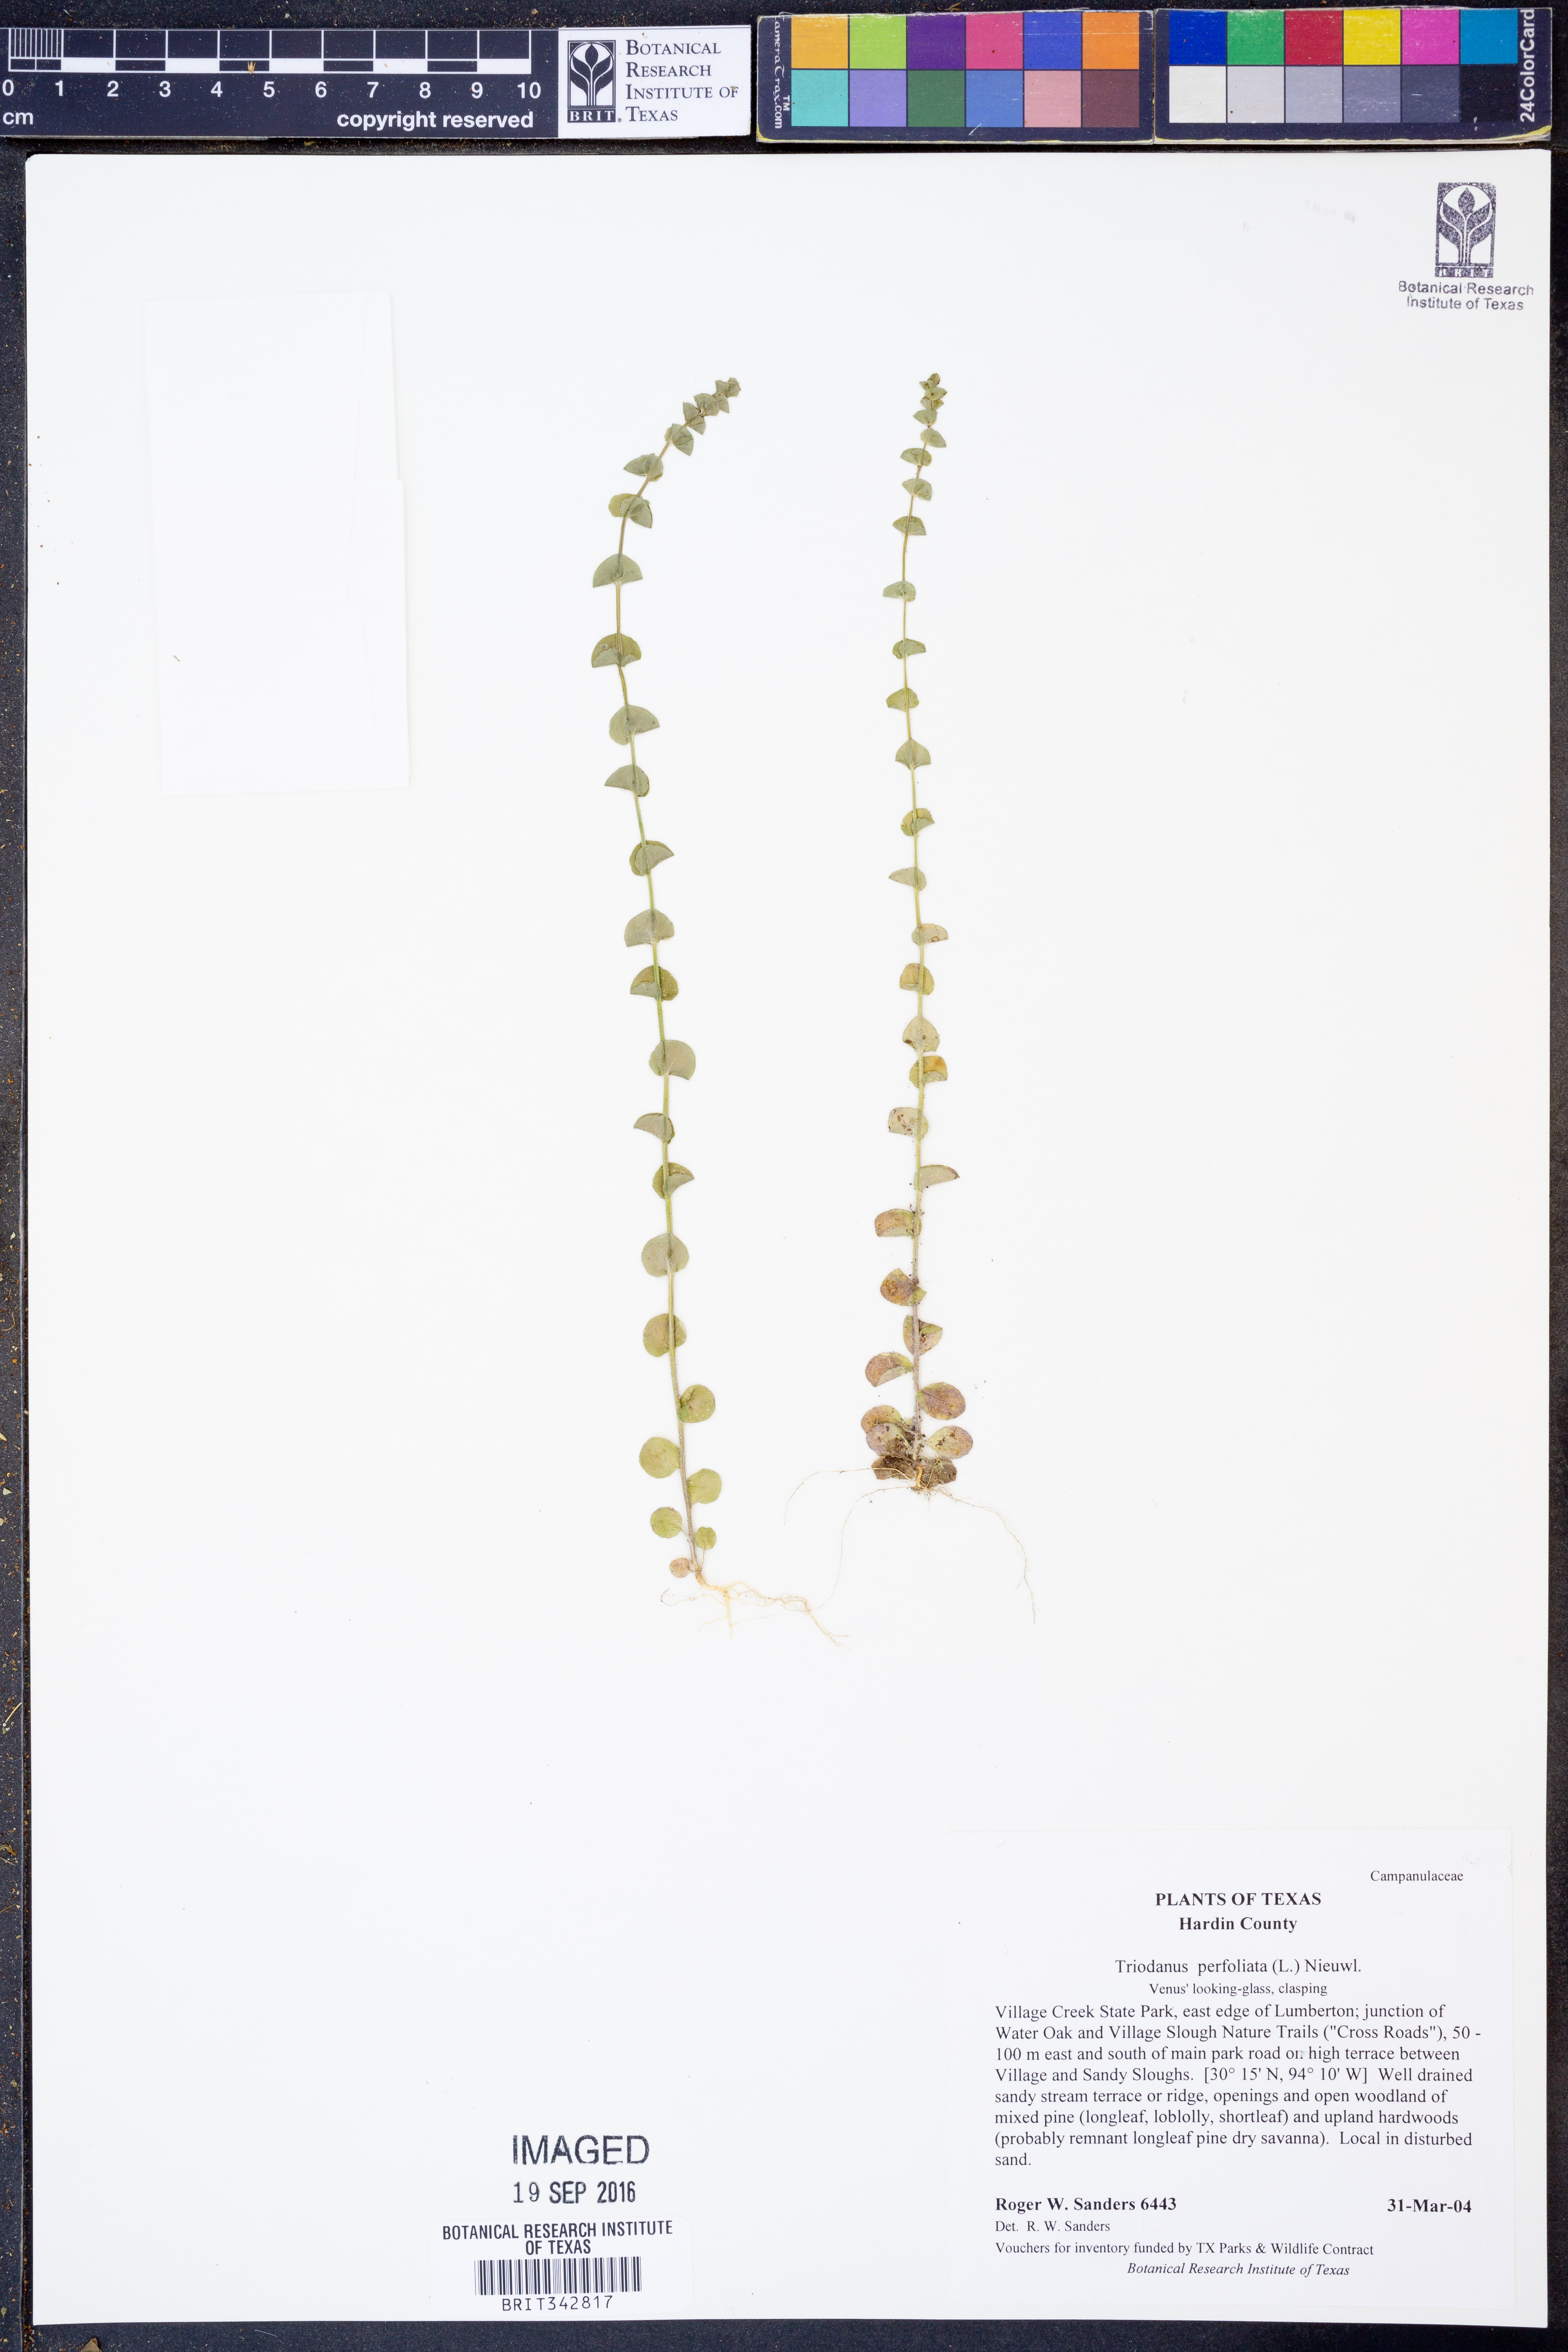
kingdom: Plantae
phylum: Tracheophyta
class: Magnoliopsida
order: Asterales
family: Campanulaceae
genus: Triodanis
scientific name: Triodanis perfoliata
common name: Clasping venus' looking-glass
